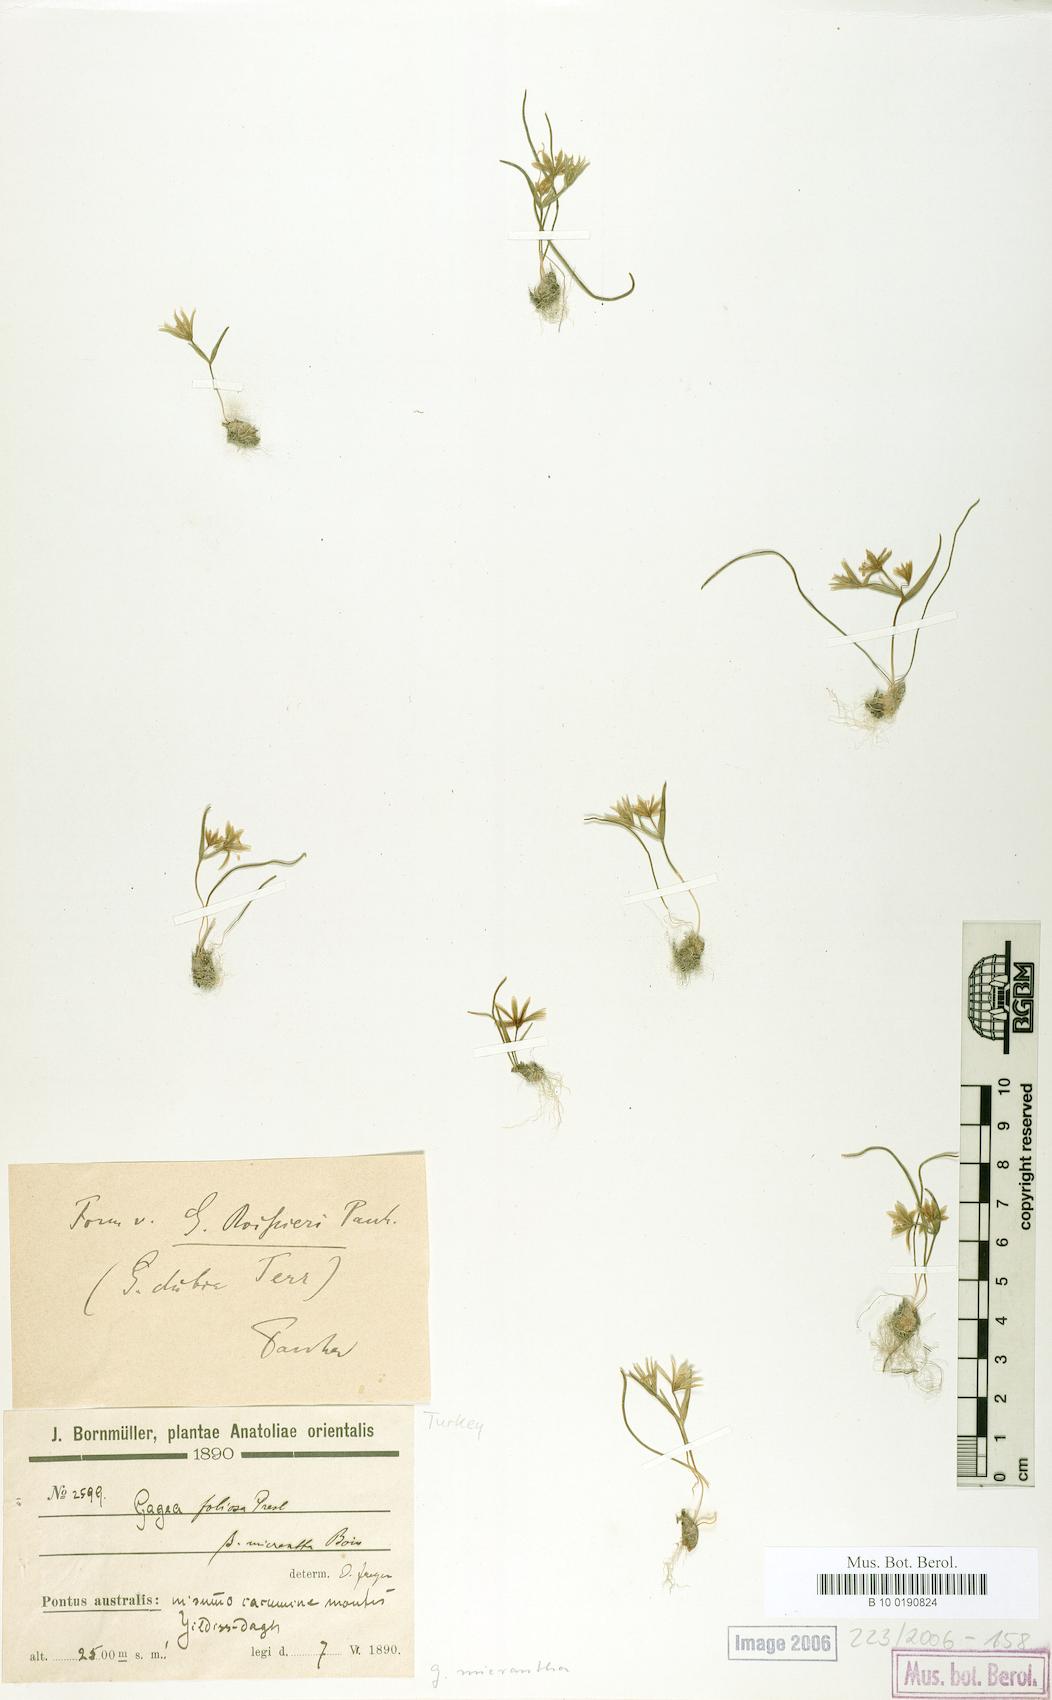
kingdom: Plantae
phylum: Tracheophyta
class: Liliopsida
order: Liliales
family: Liliaceae
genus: Gagea
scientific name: Gagea micrantha
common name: Small-flowered gagea
